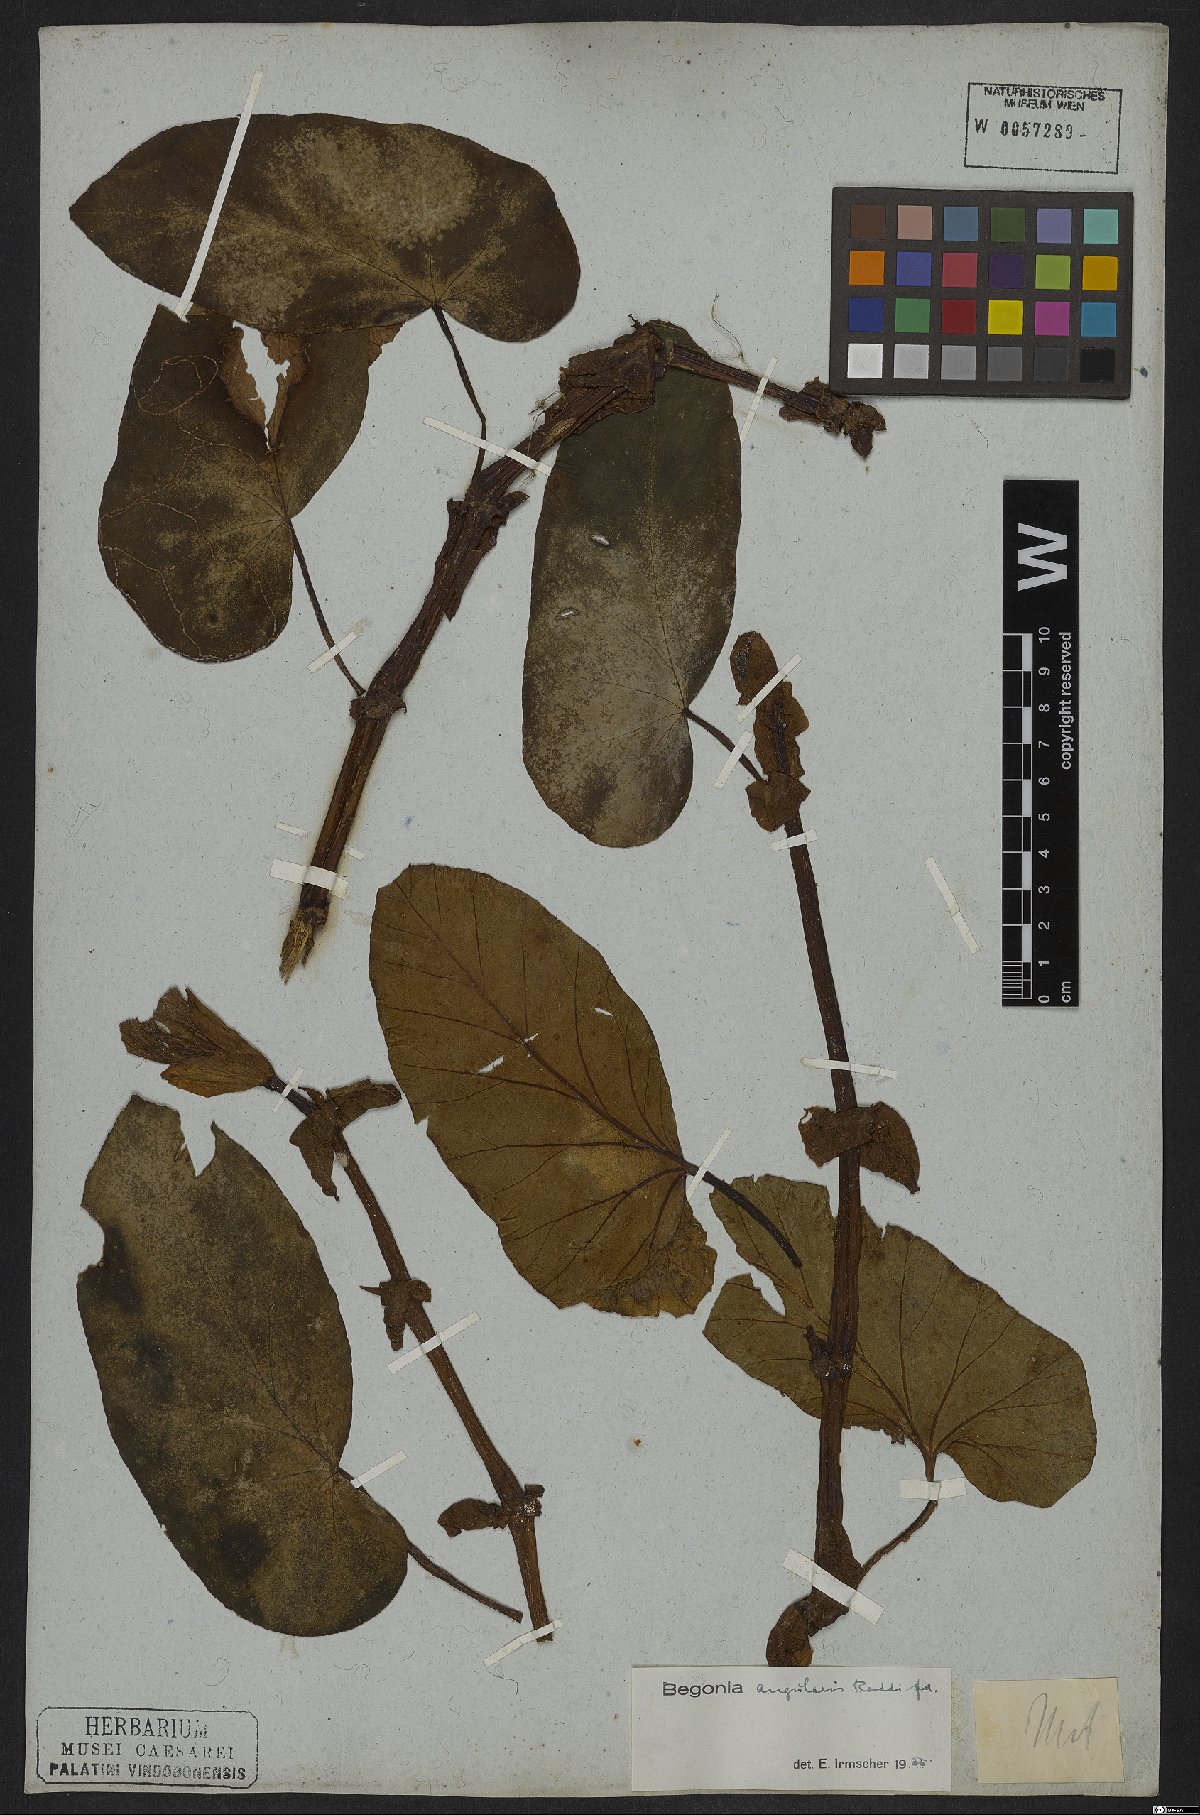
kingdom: Plantae
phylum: Tracheophyta
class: Magnoliopsida
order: Cucurbitales
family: Begoniaceae
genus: Begonia
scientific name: Begonia angularis
